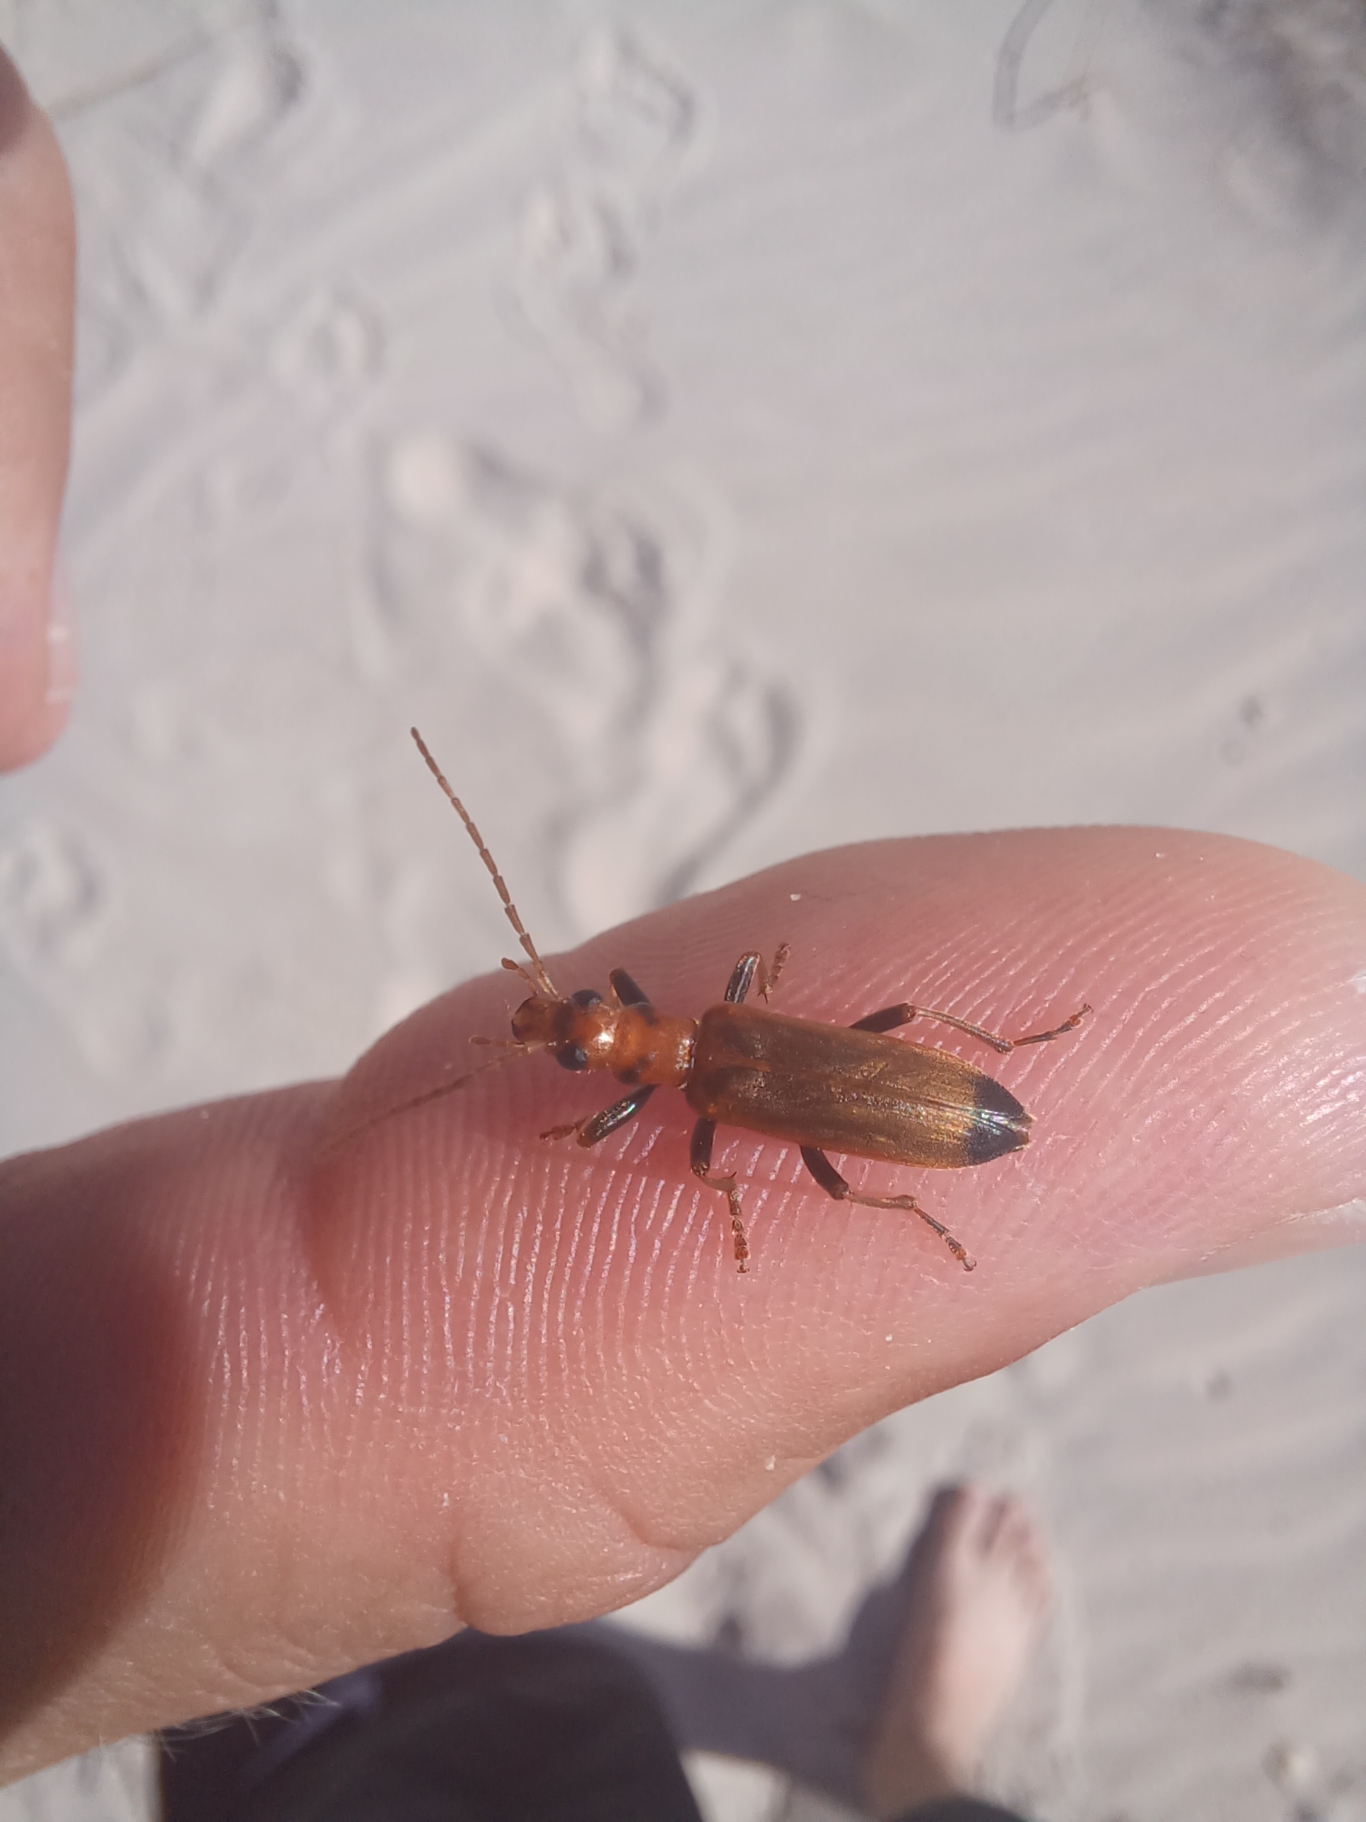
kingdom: Animalia
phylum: Arthropoda
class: Insecta
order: Coleoptera
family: Oedemeridae
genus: Nacerdes
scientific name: Nacerdes melanura
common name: Bolværksbille
